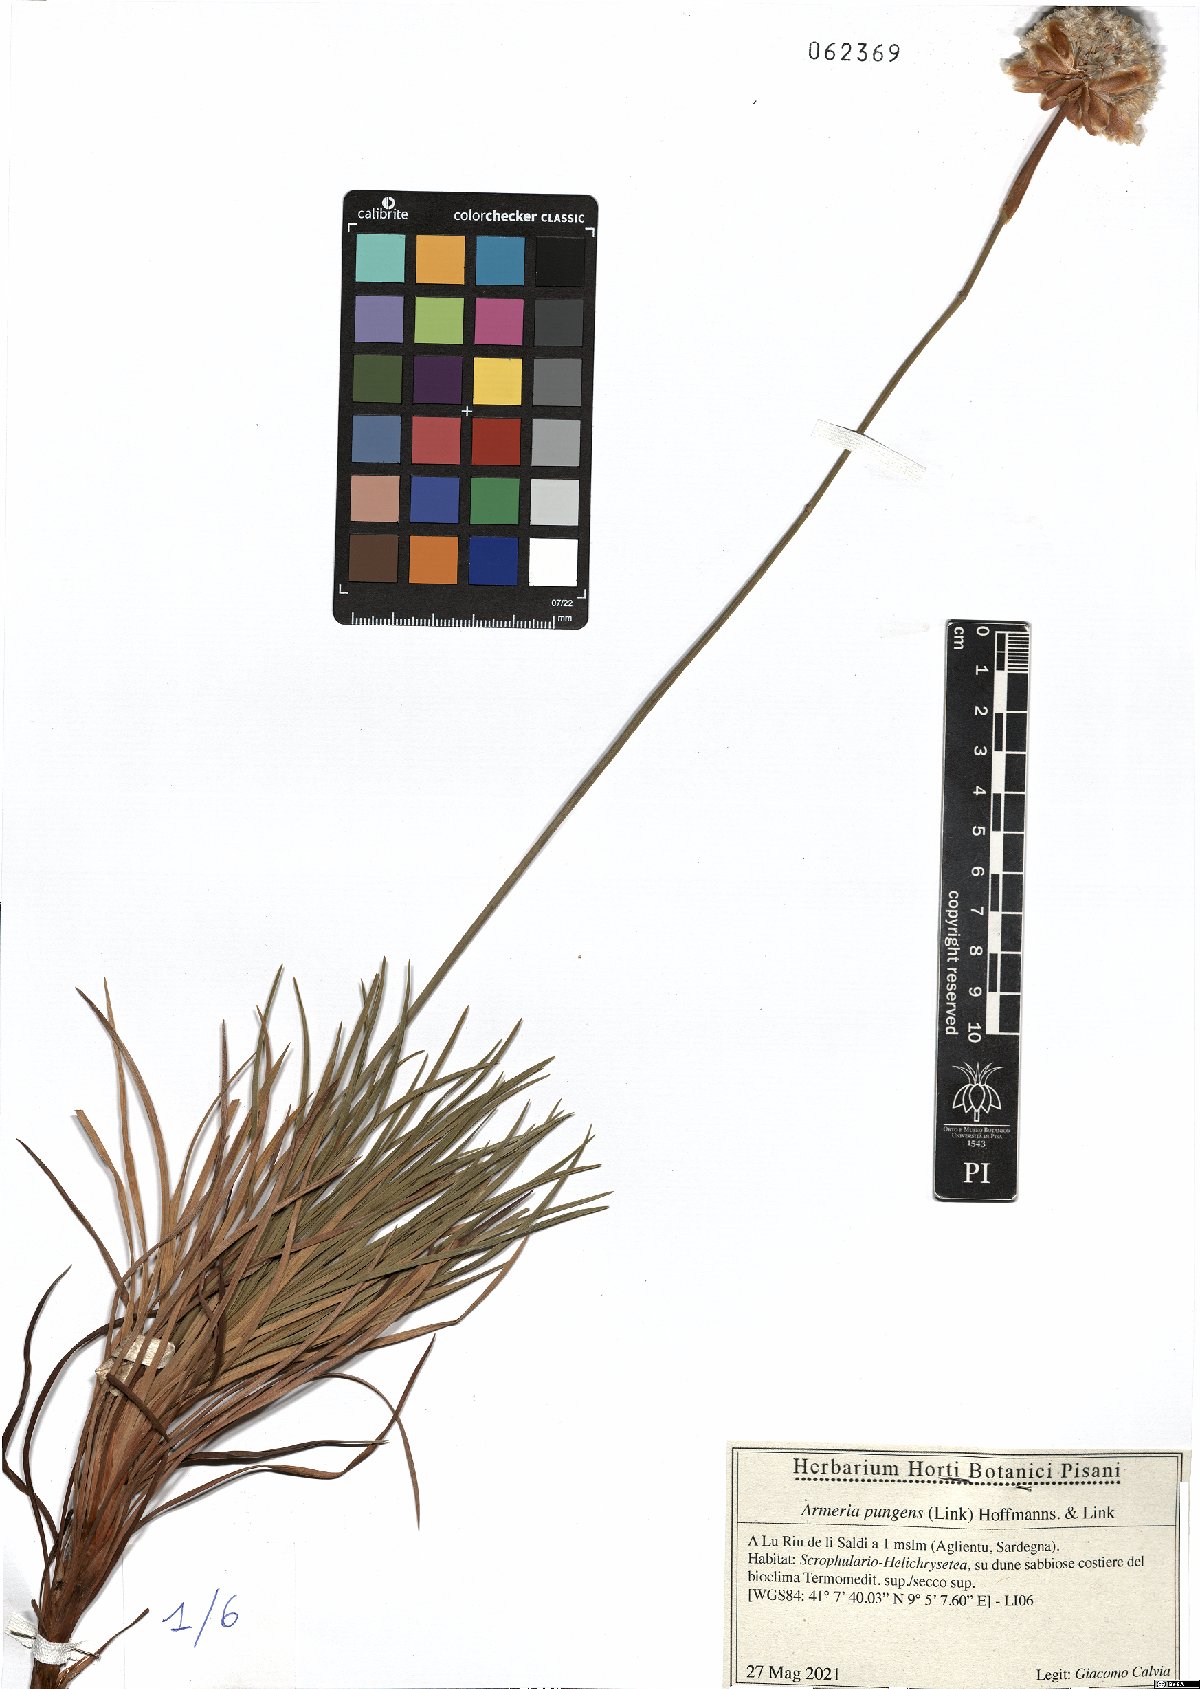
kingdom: Plantae
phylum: Tracheophyta
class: Magnoliopsida
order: Caryophyllales
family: Plumbaginaceae
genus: Armeria
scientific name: Armeria pungens
